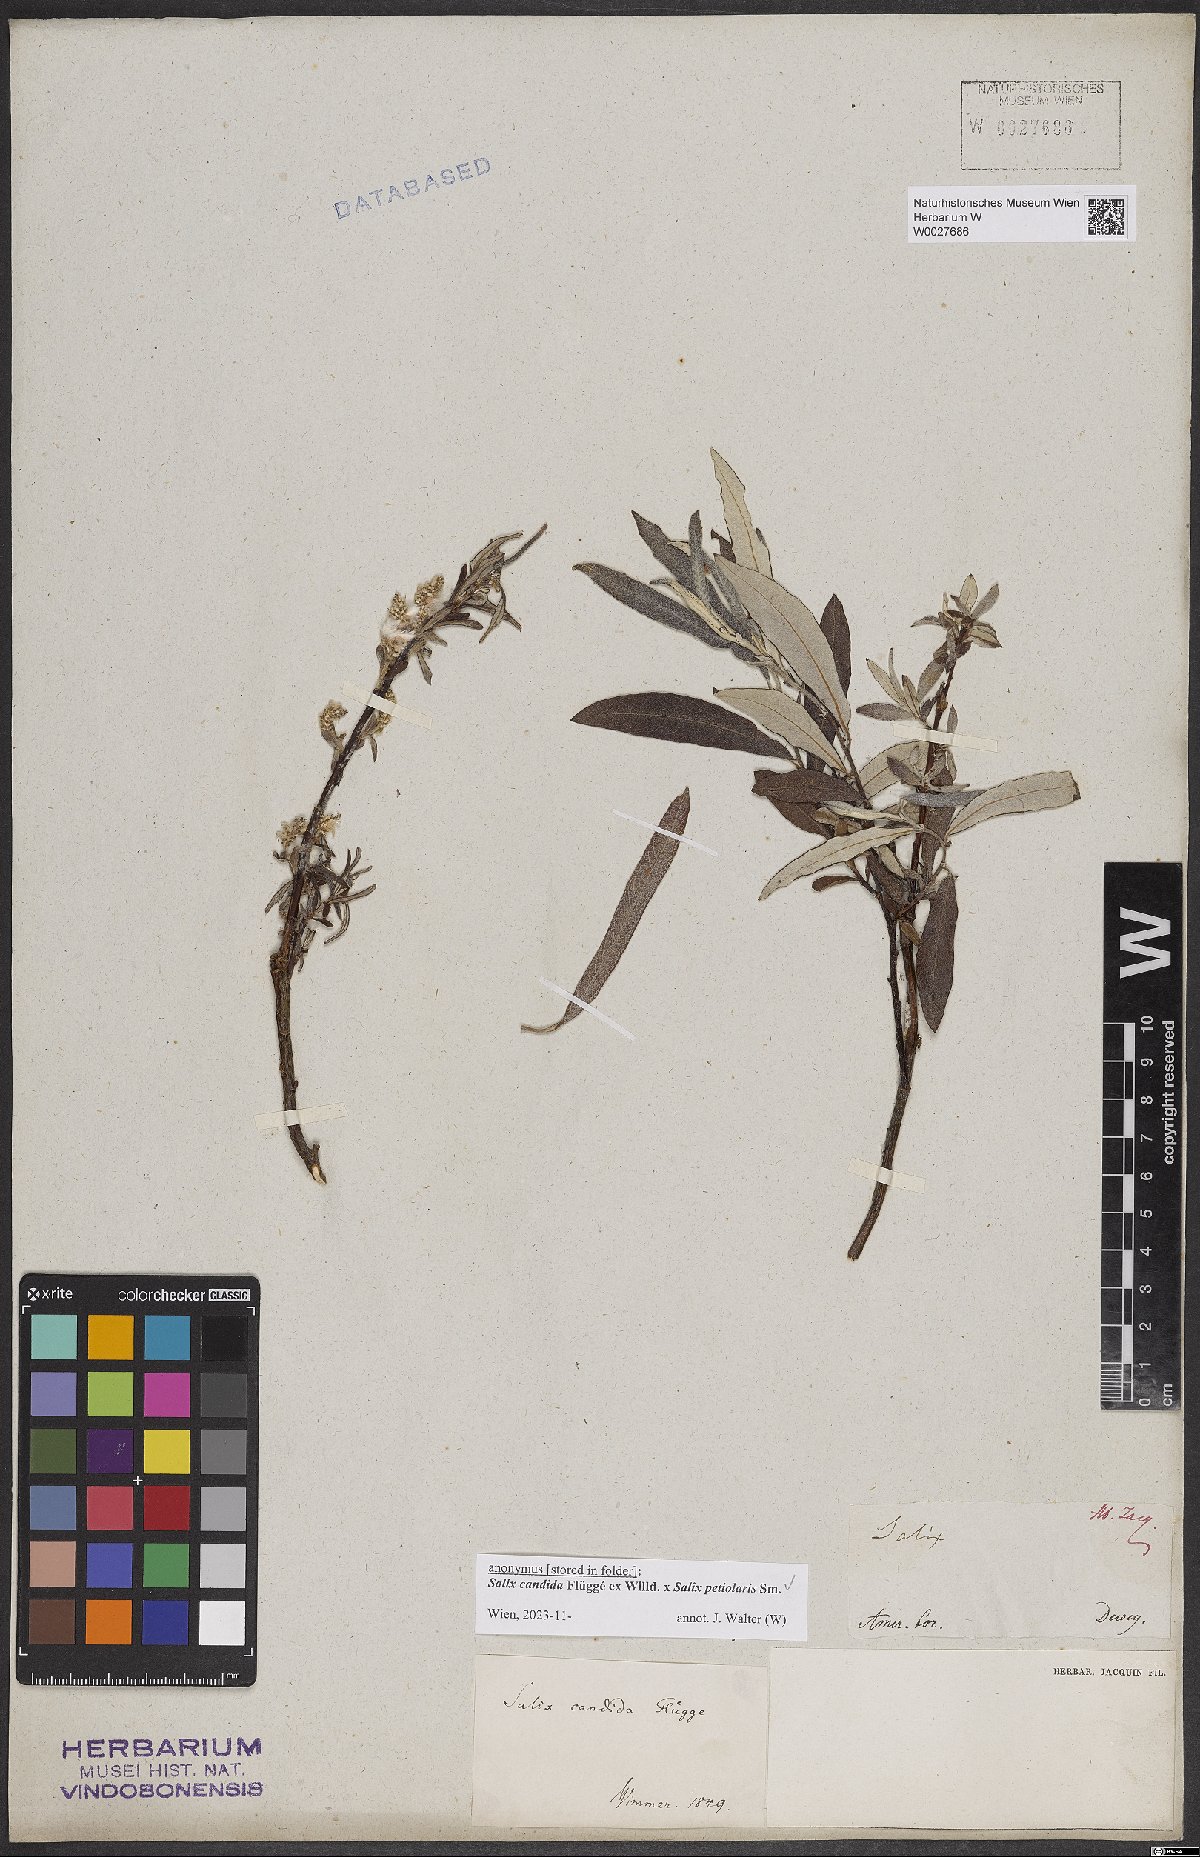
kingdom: Plantae
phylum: Tracheophyta
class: Magnoliopsida
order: Malpighiales
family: Salicaceae
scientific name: Salicaceae
